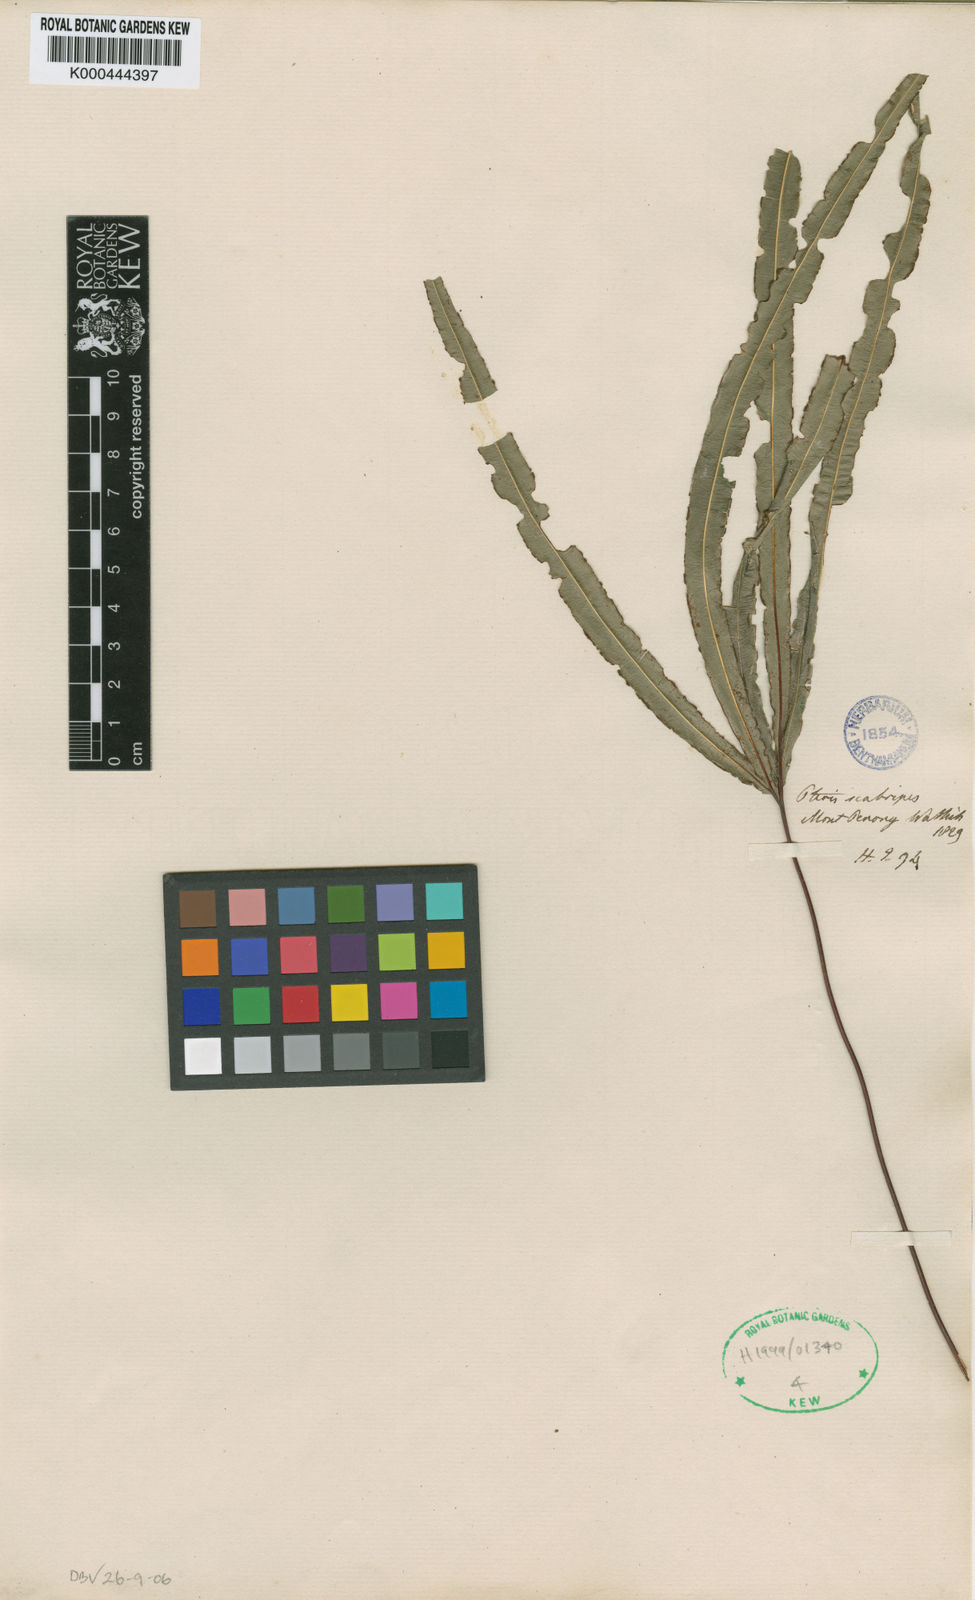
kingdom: Plantae
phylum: Tracheophyta
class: Polypodiopsida
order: Polypodiales
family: Pteridaceae
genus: Pteris
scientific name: Pteris
